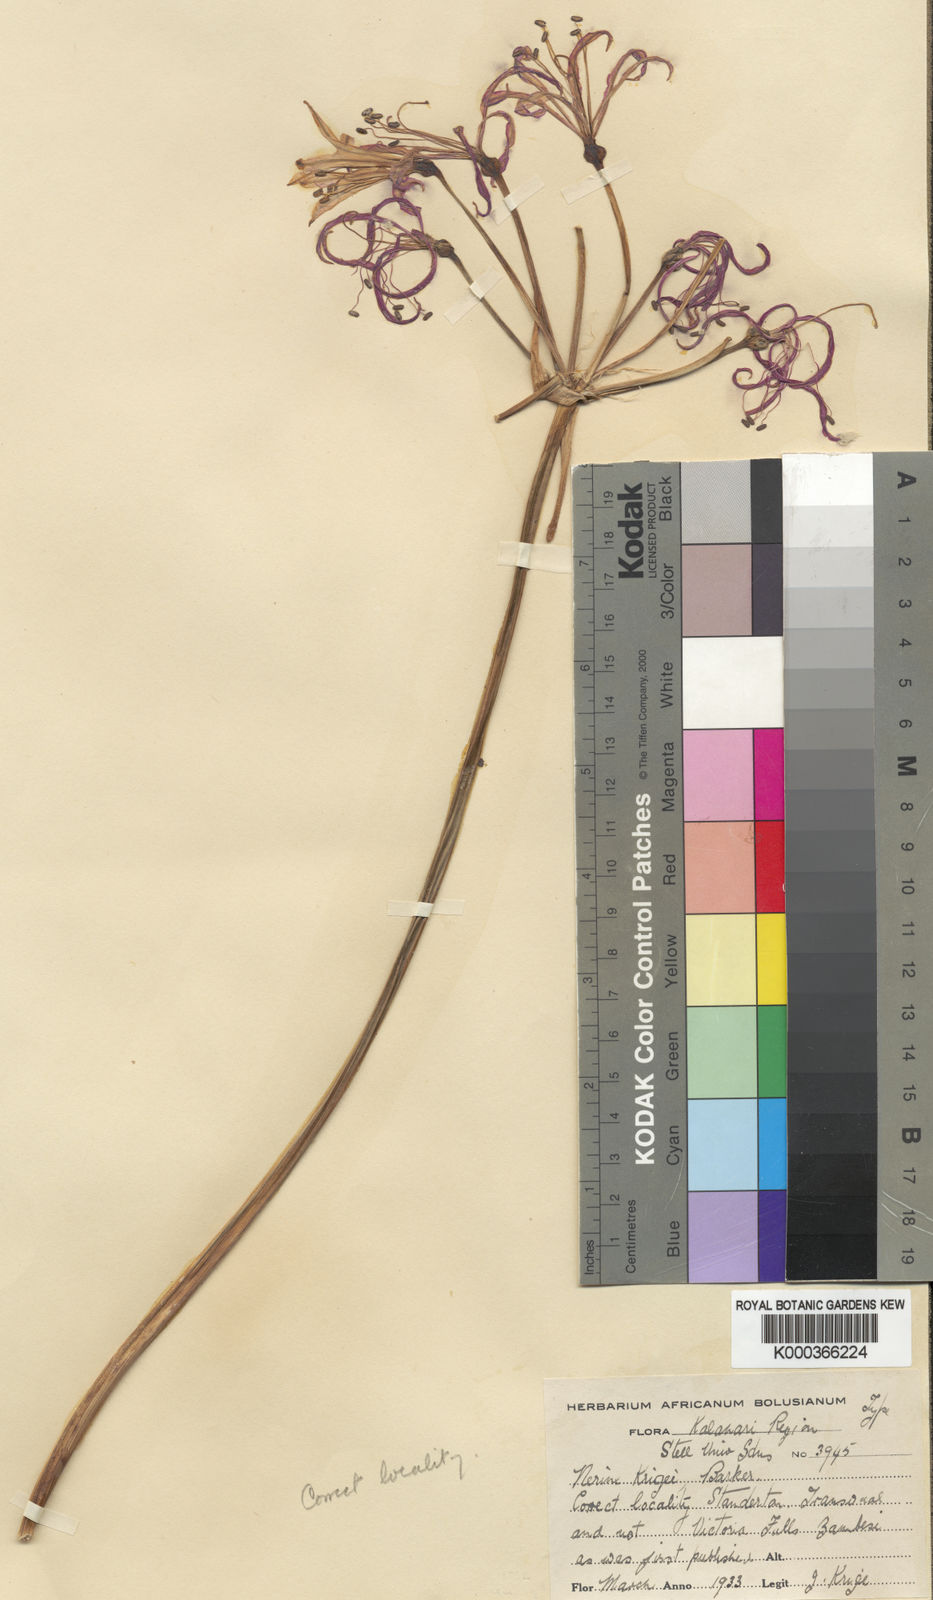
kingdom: Plantae
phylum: Tracheophyta
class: Liliopsida
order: Asparagales
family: Amaryllidaceae
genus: Nerine
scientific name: Nerine krigei
